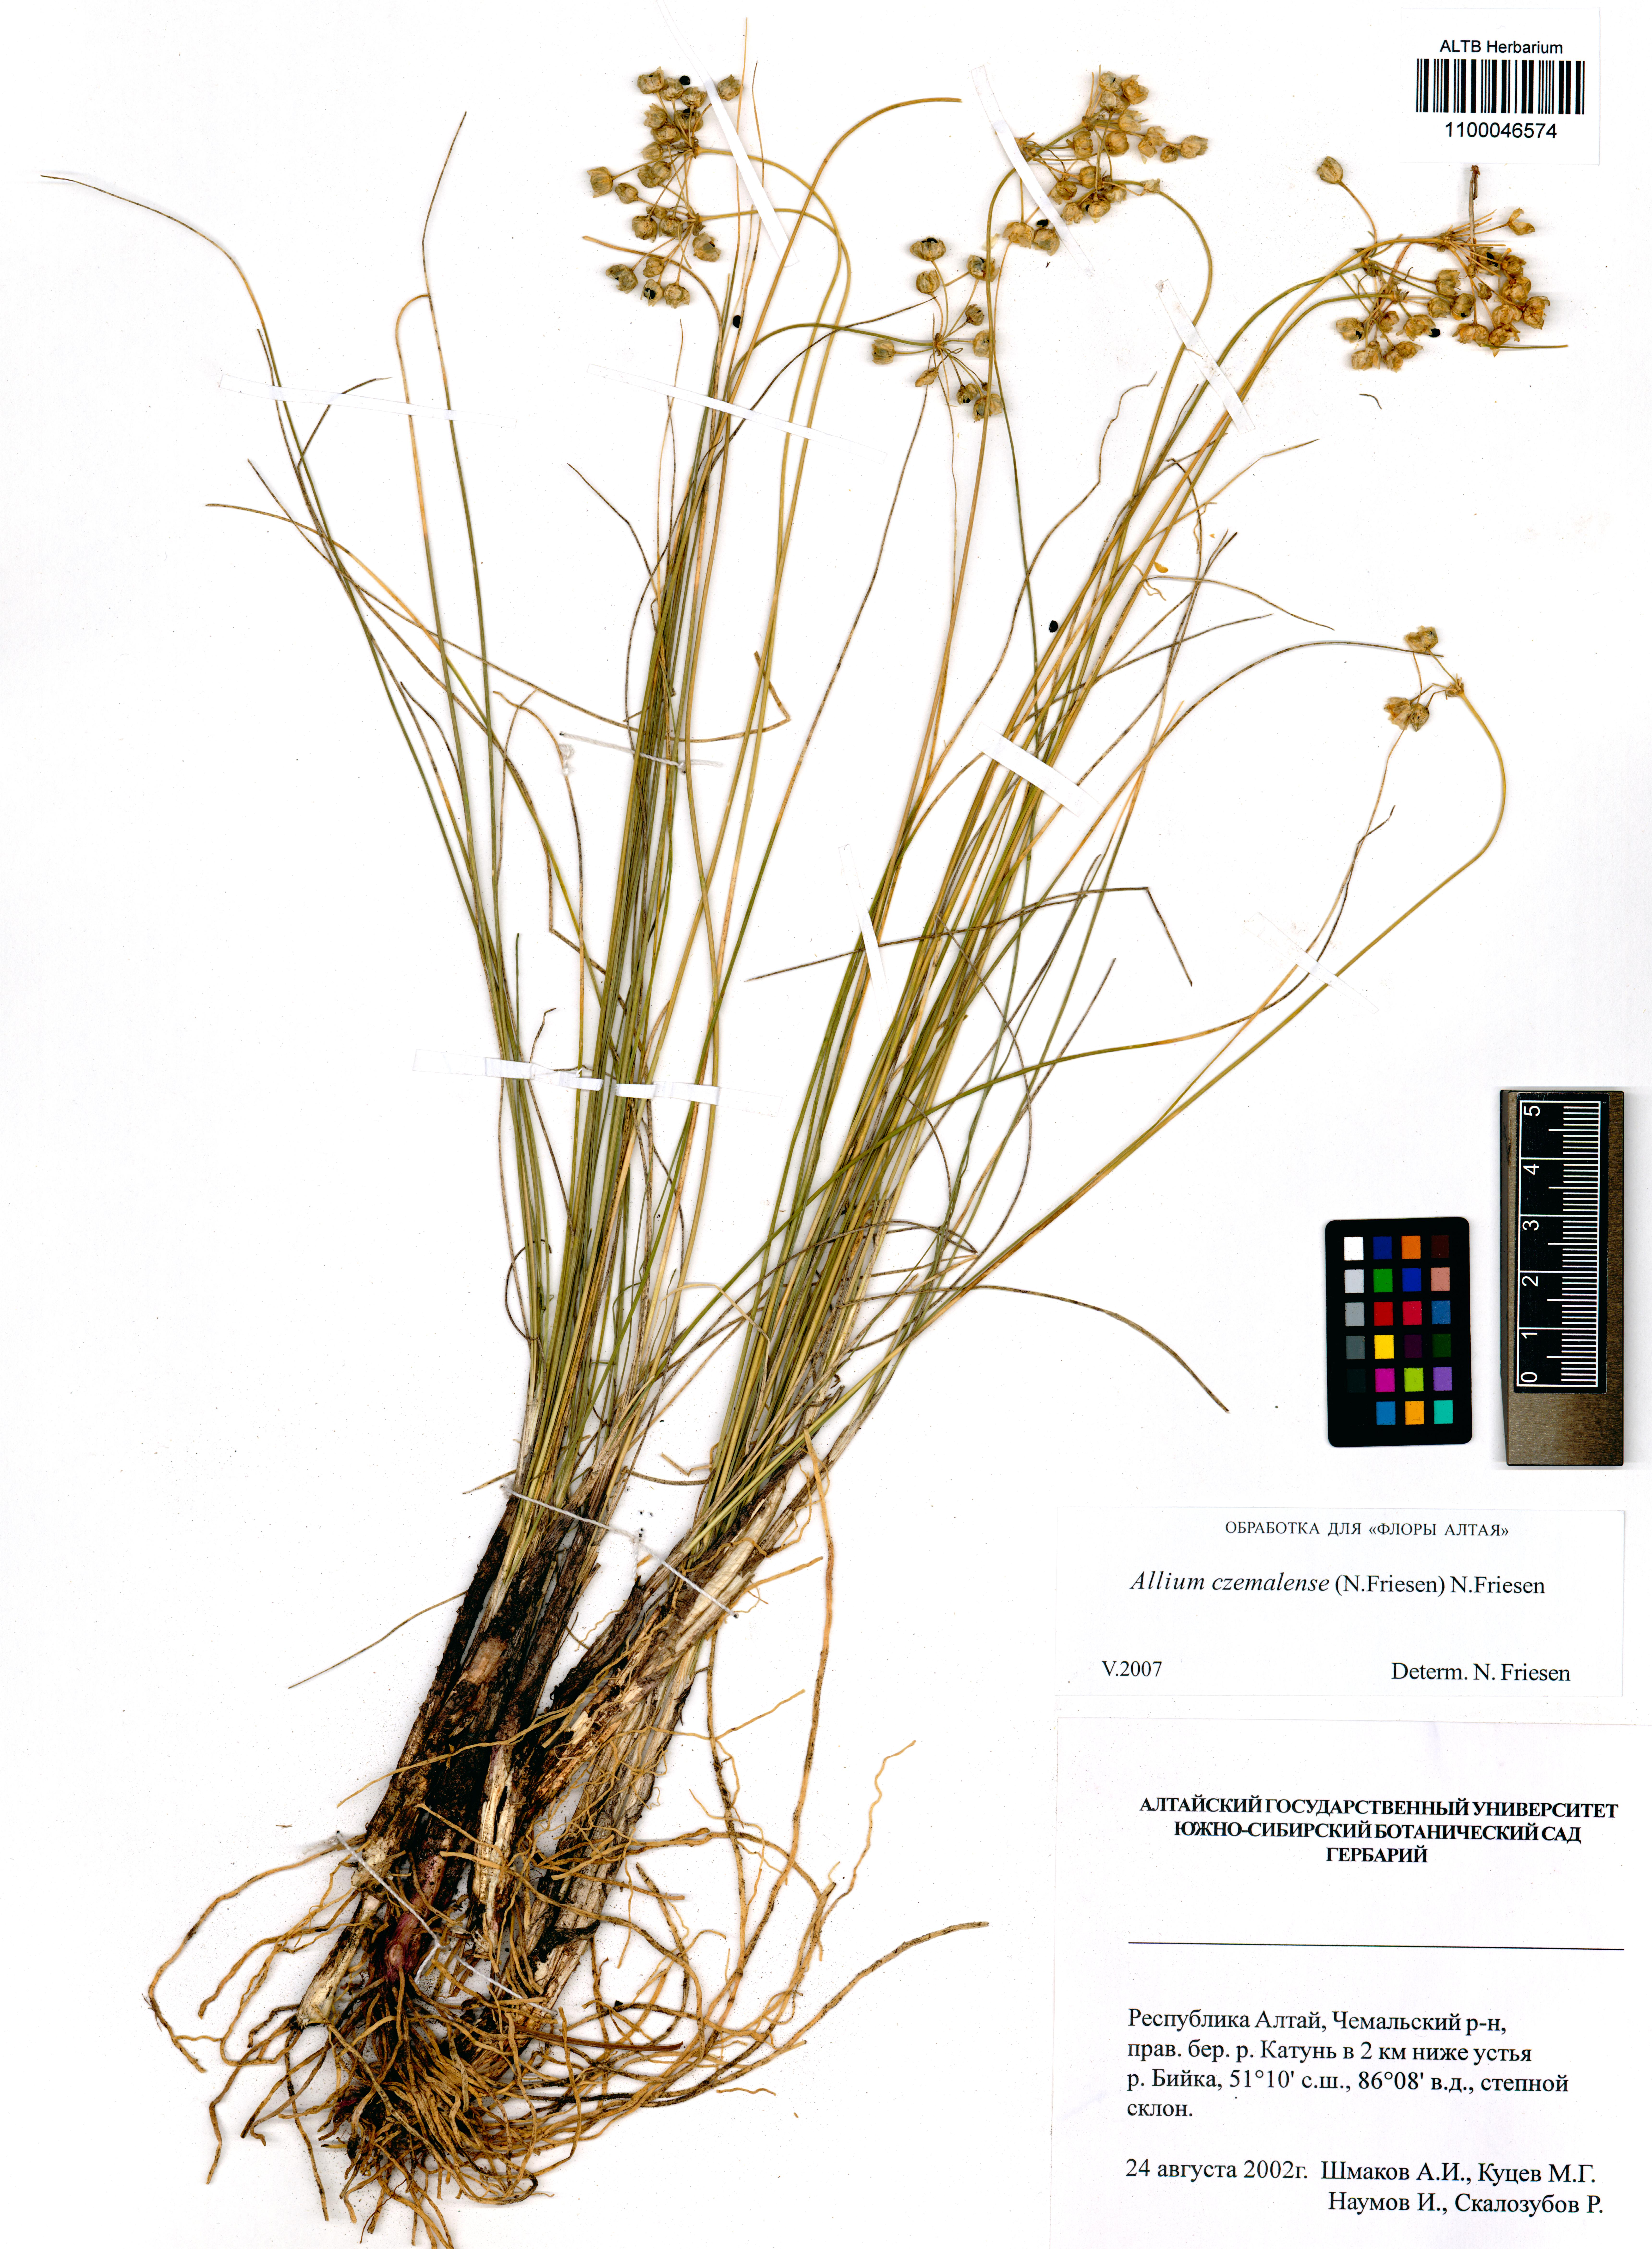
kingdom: Plantae
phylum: Tracheophyta
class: Liliopsida
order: Asparagales
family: Amaryllidaceae
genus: Allium
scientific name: Allium
